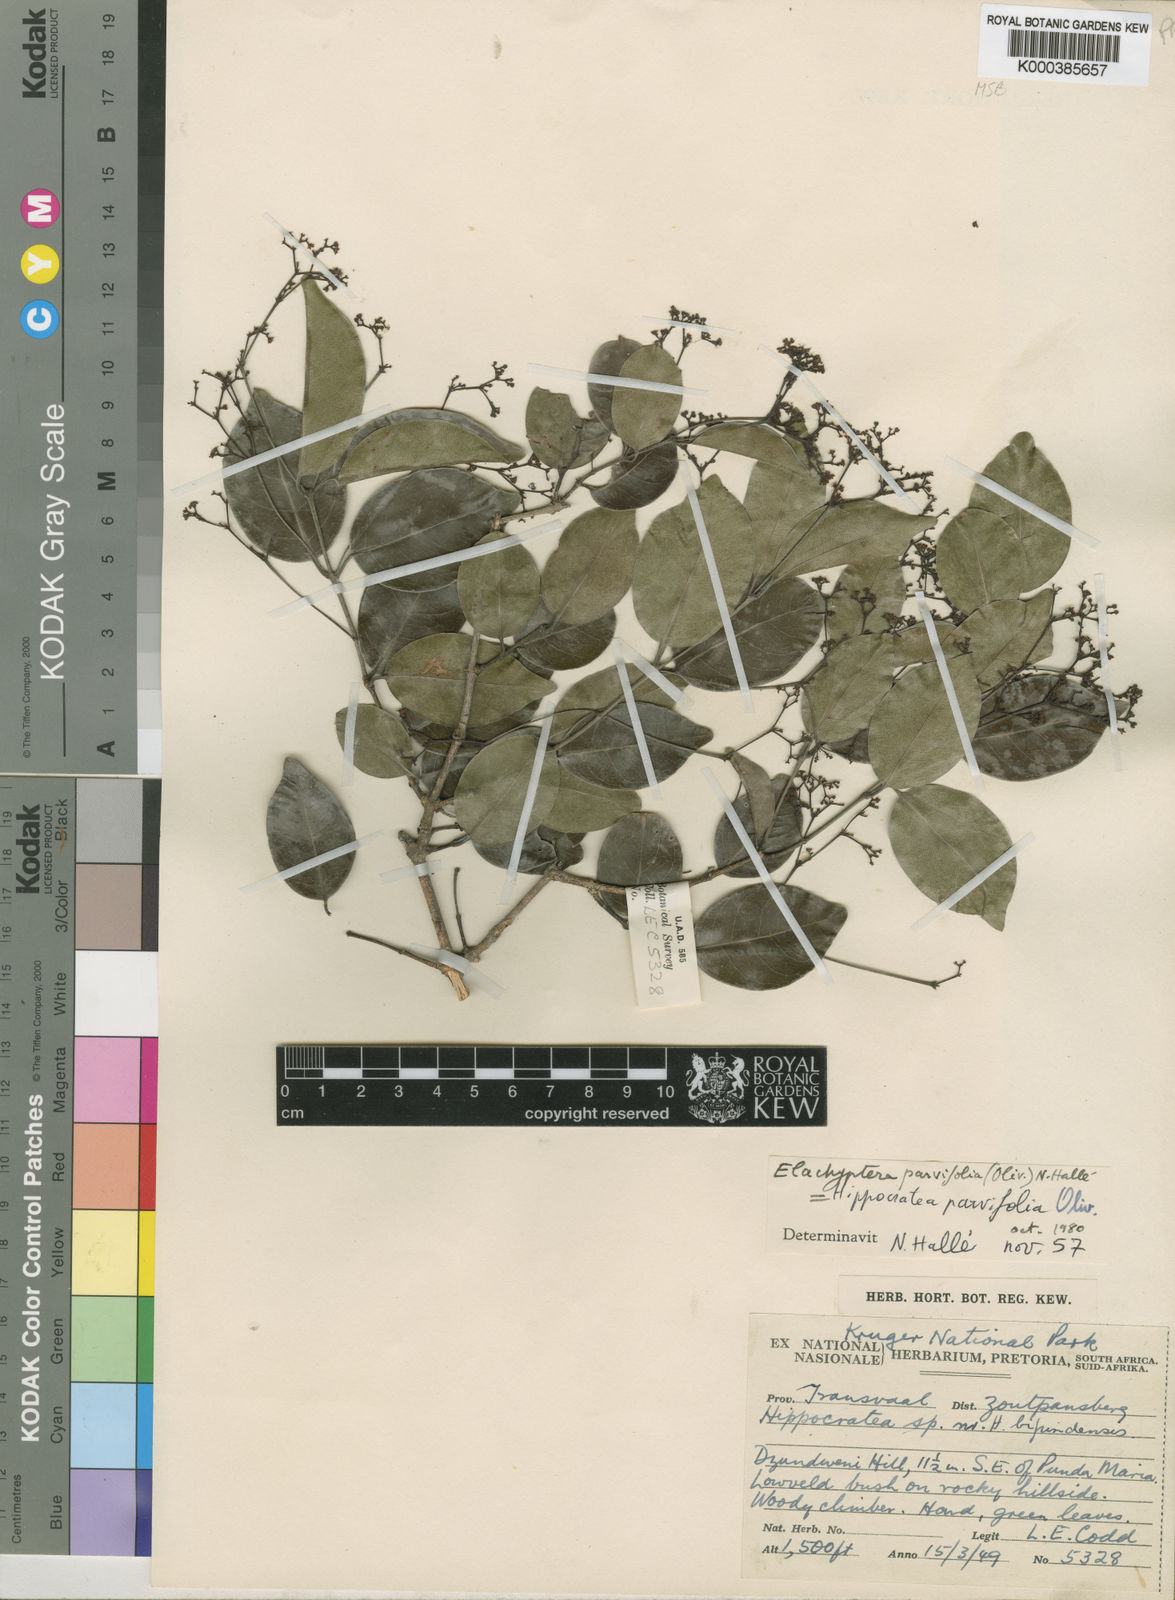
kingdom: Plantae
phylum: Tracheophyta
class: Magnoliopsida
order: Celastrales
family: Celastraceae
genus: Elachyptera
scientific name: Elachyptera parvifolia
